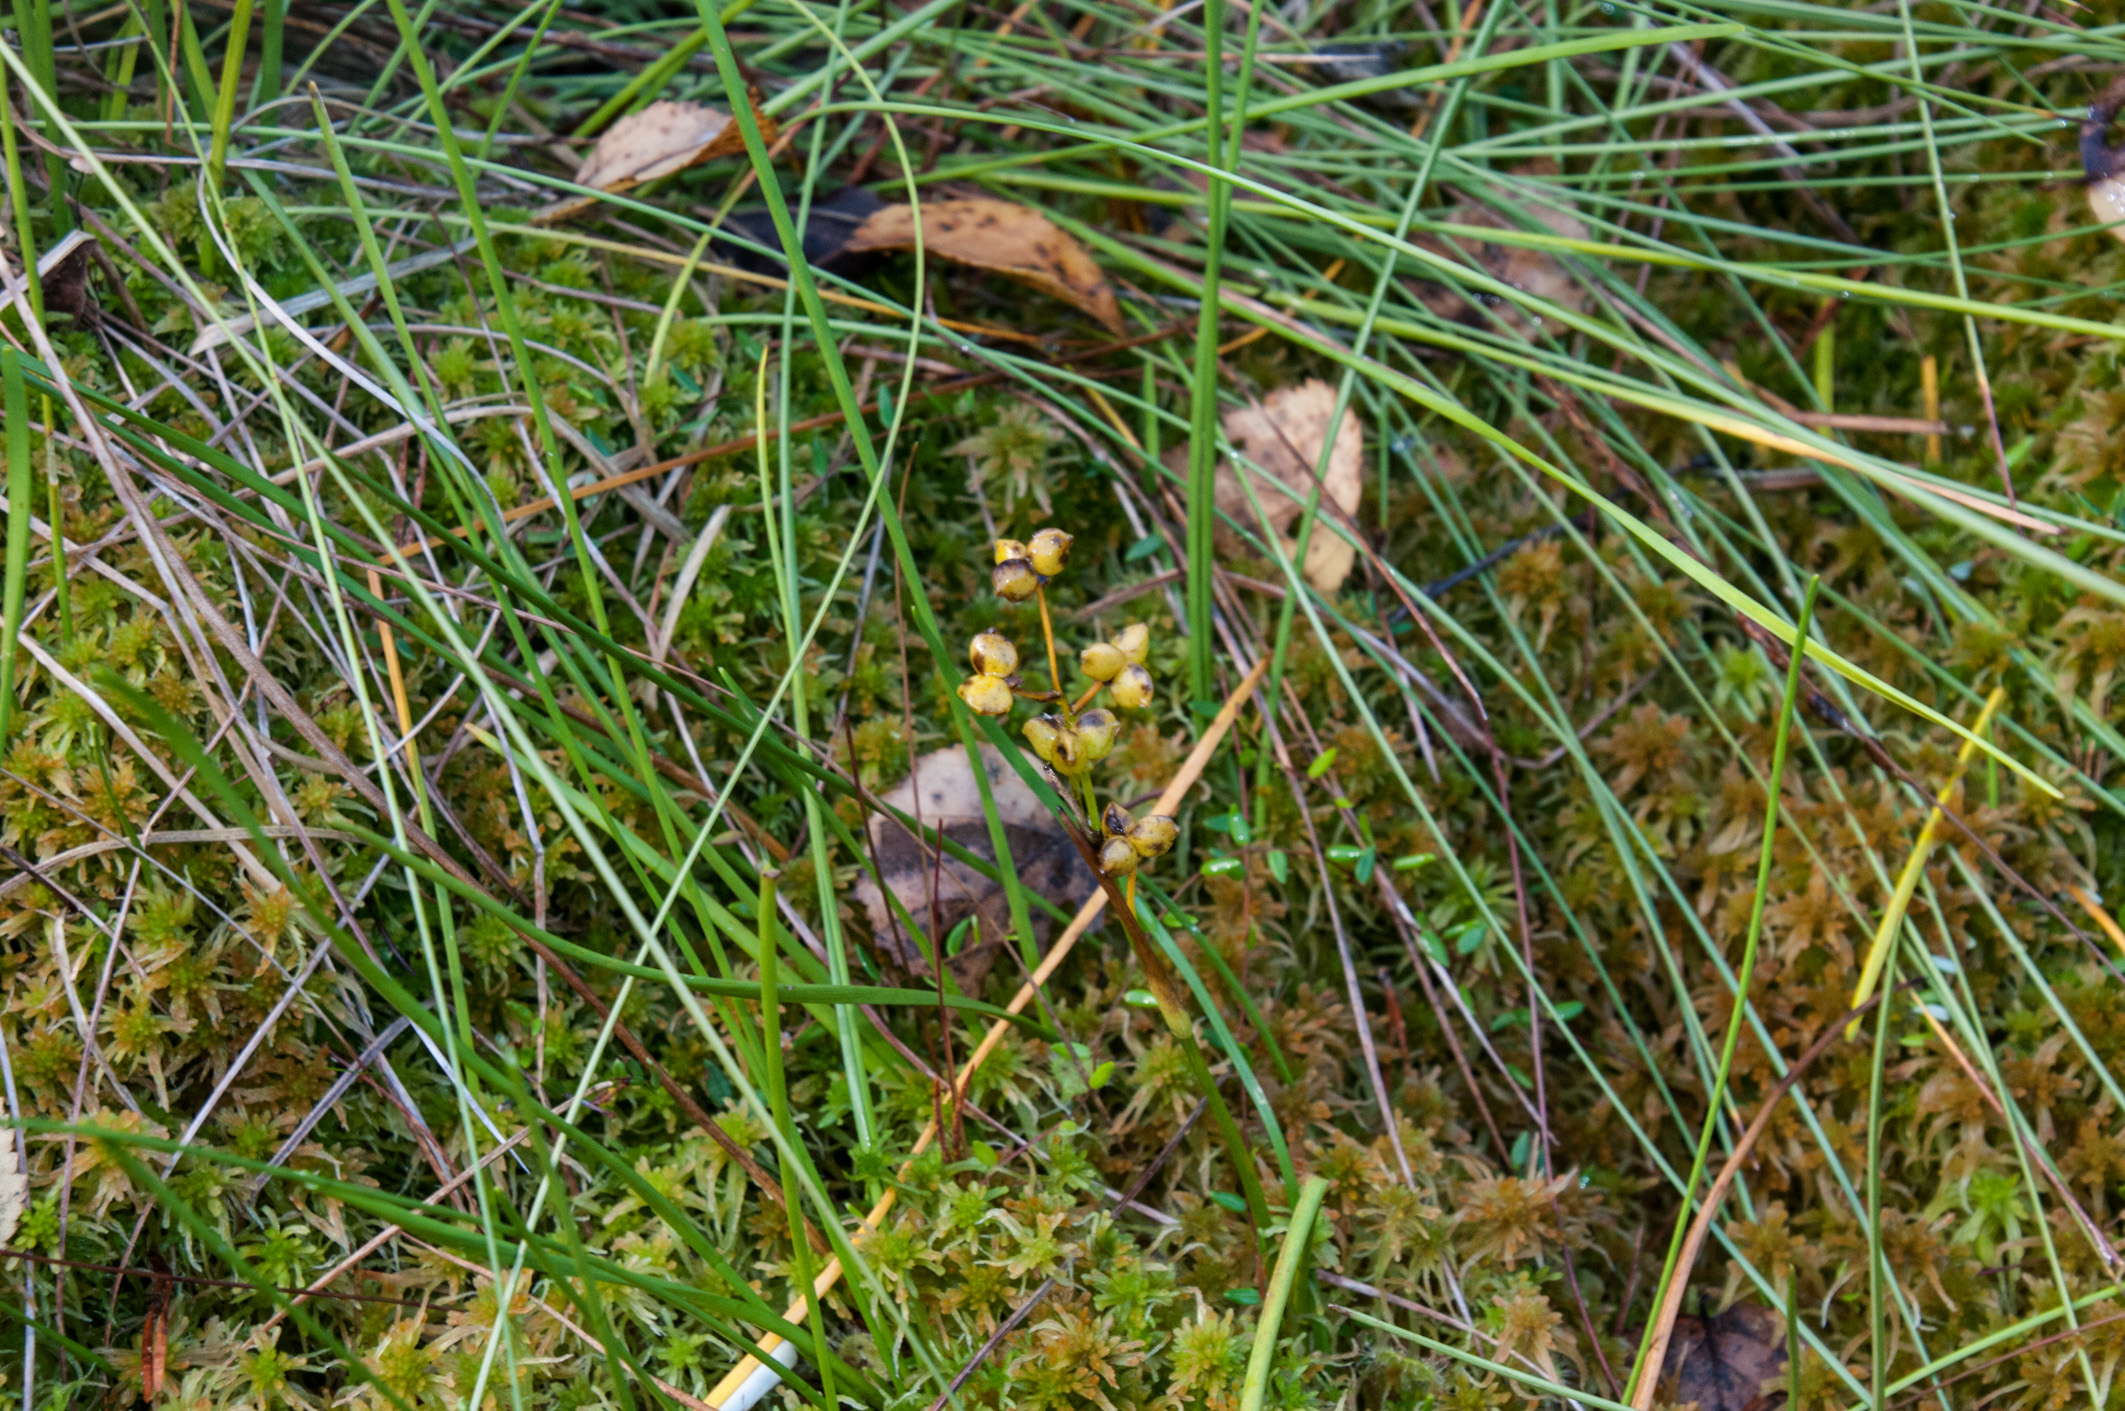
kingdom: Plantae
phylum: Tracheophyta
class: Liliopsida
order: Alismatales
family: Scheuchzeriaceae
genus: Scheuchzeria
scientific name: Scheuchzeria palustris
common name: Rannoch-rush
